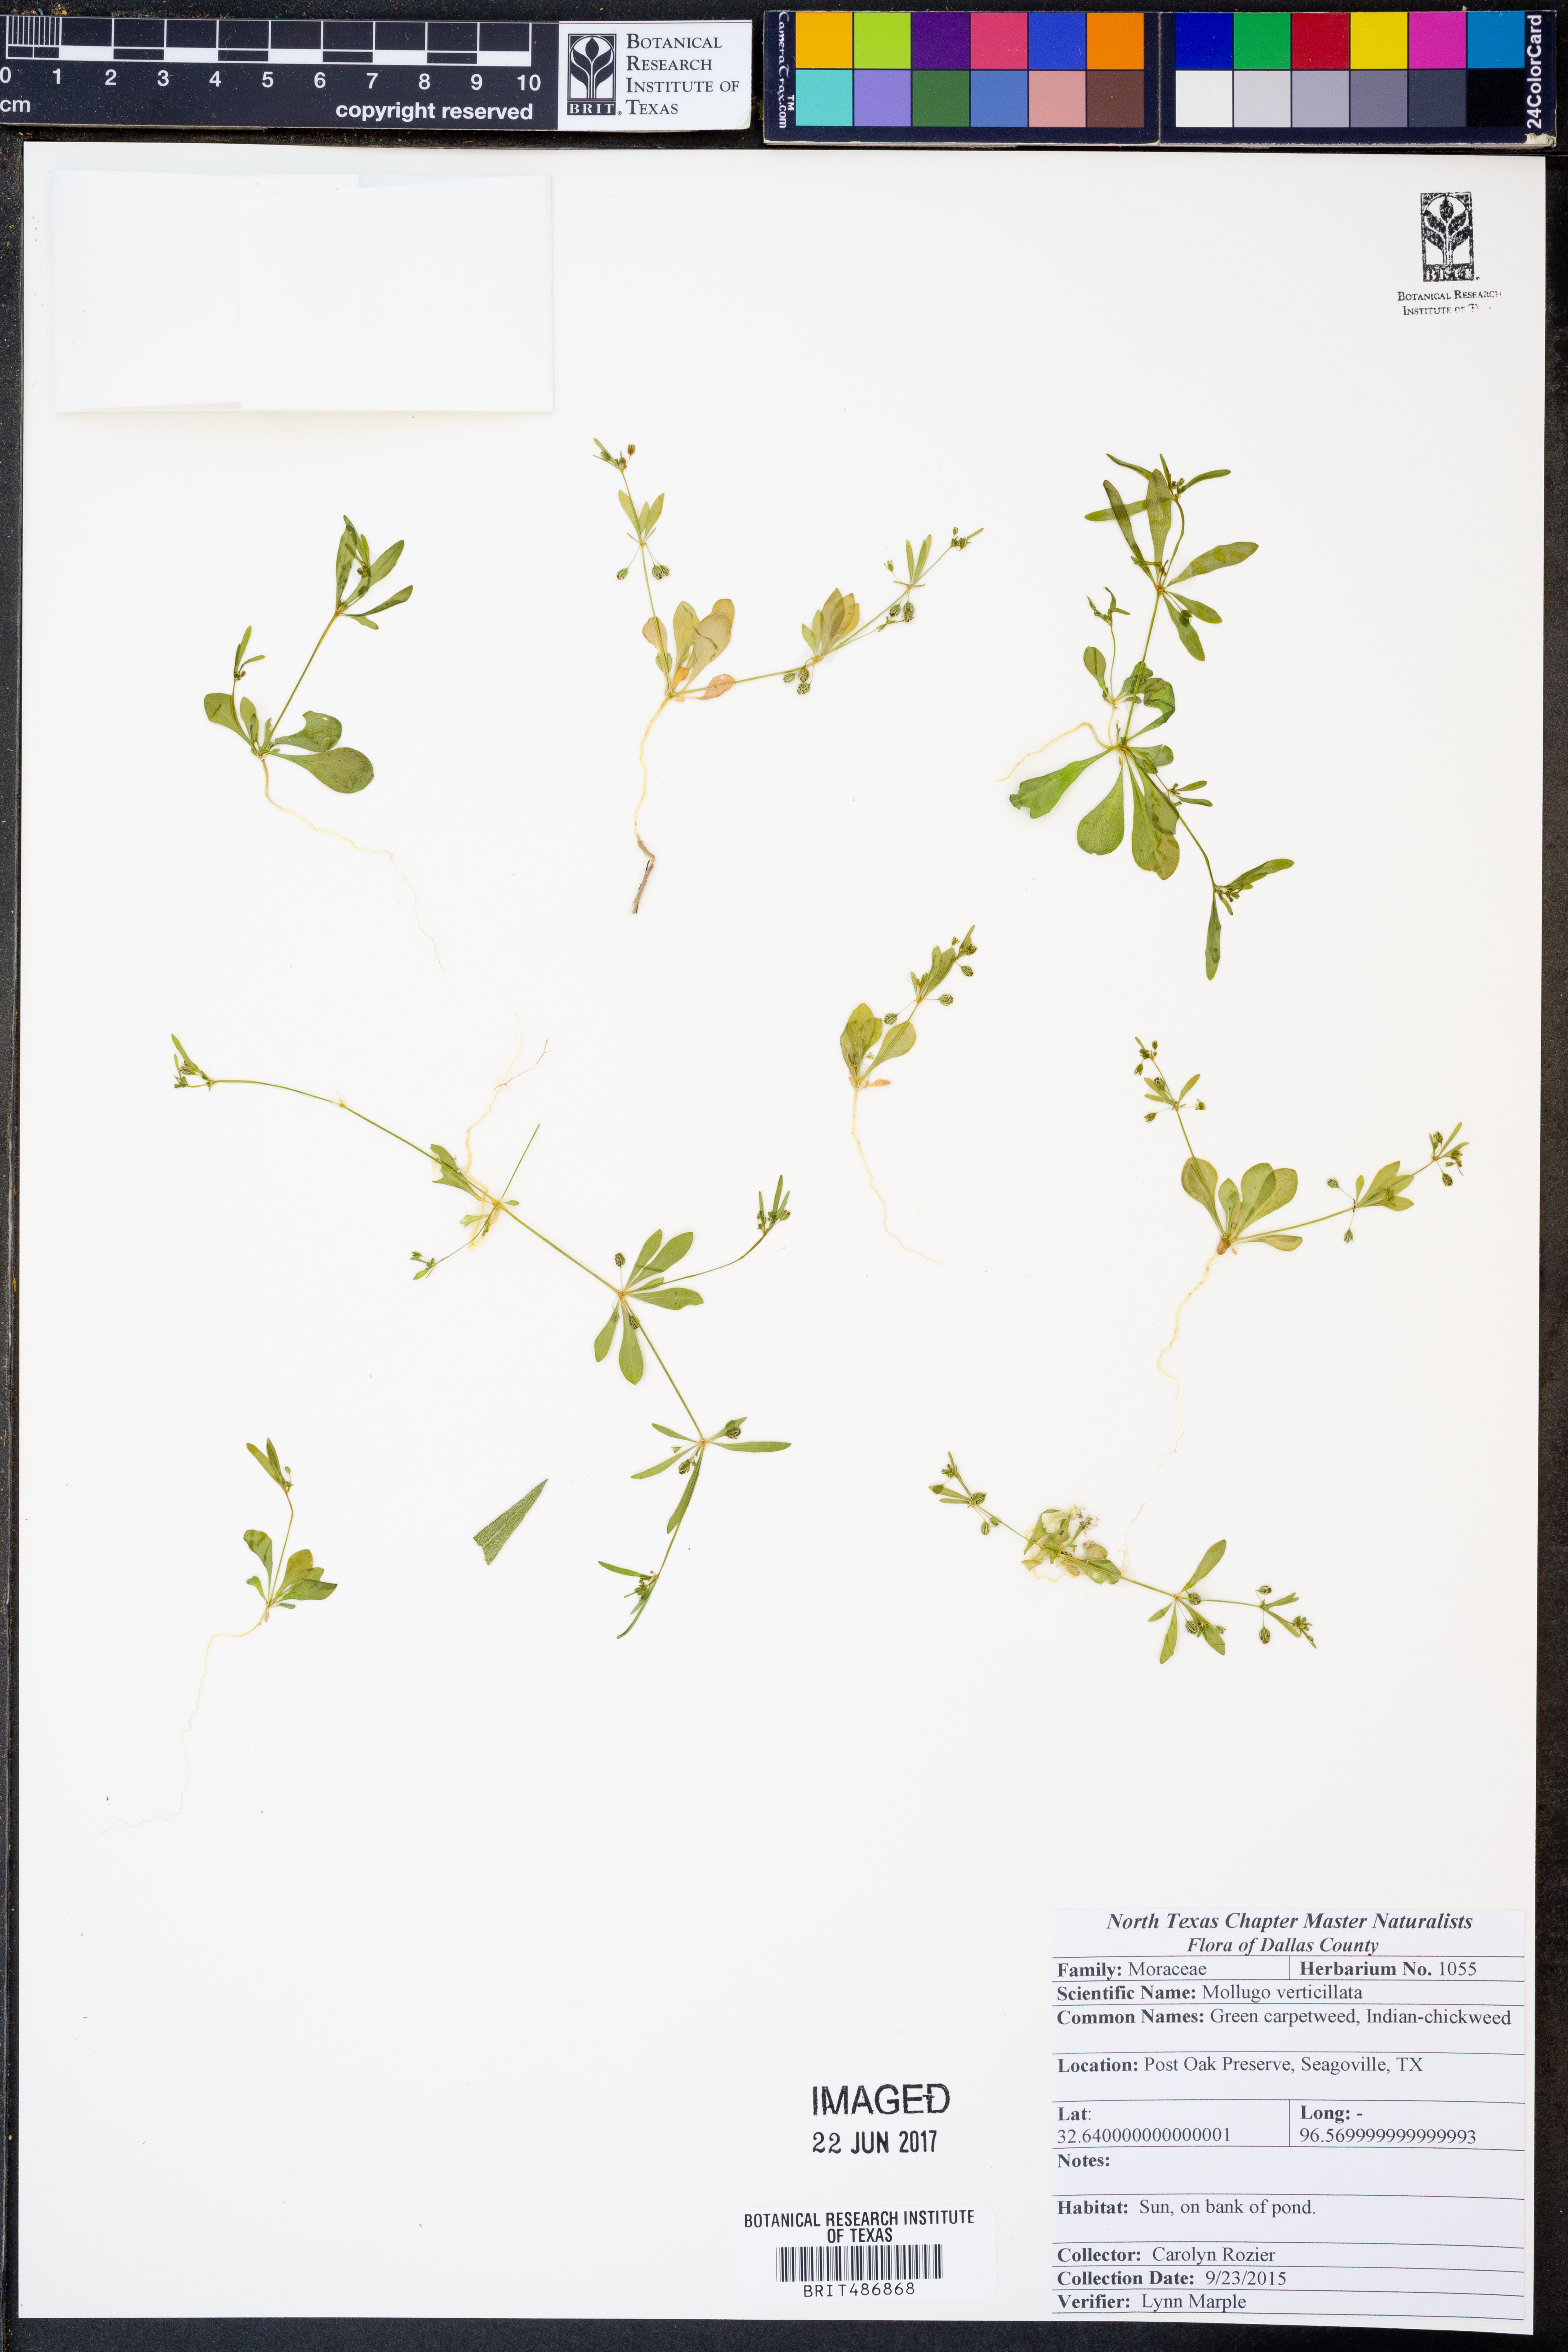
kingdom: Plantae
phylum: Tracheophyta
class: Magnoliopsida
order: Caryophyllales
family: Molluginaceae
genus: Mollugo
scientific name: Mollugo verticillata
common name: Green carpetweed
